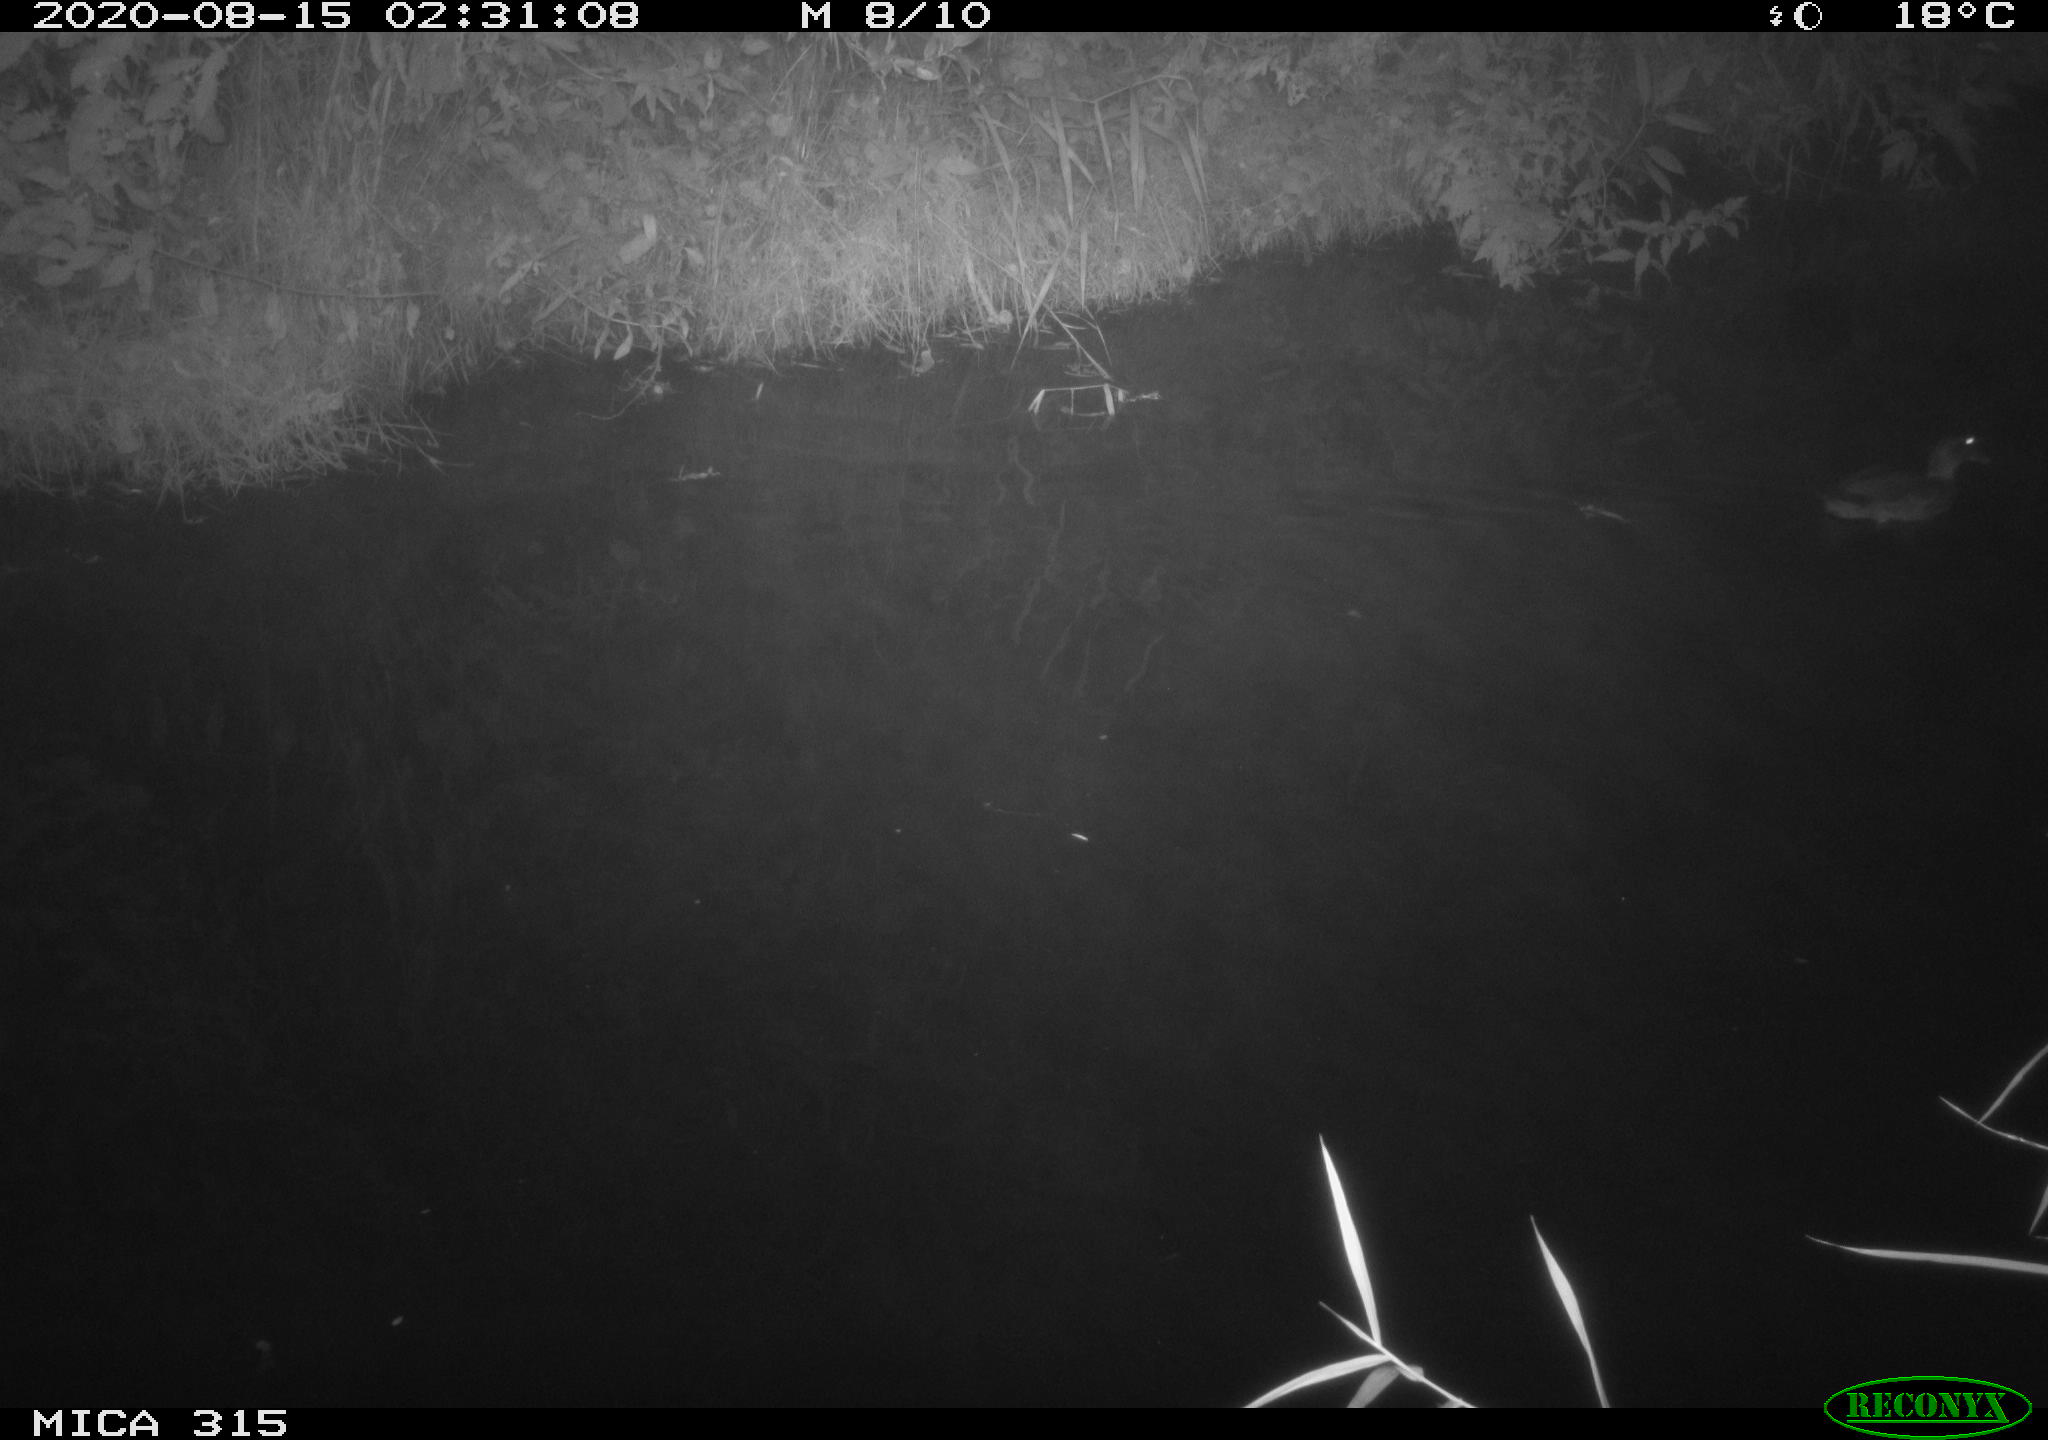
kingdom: Animalia
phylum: Chordata
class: Aves
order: Anseriformes
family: Anatidae
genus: Anas
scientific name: Anas platyrhynchos
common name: Mallard
